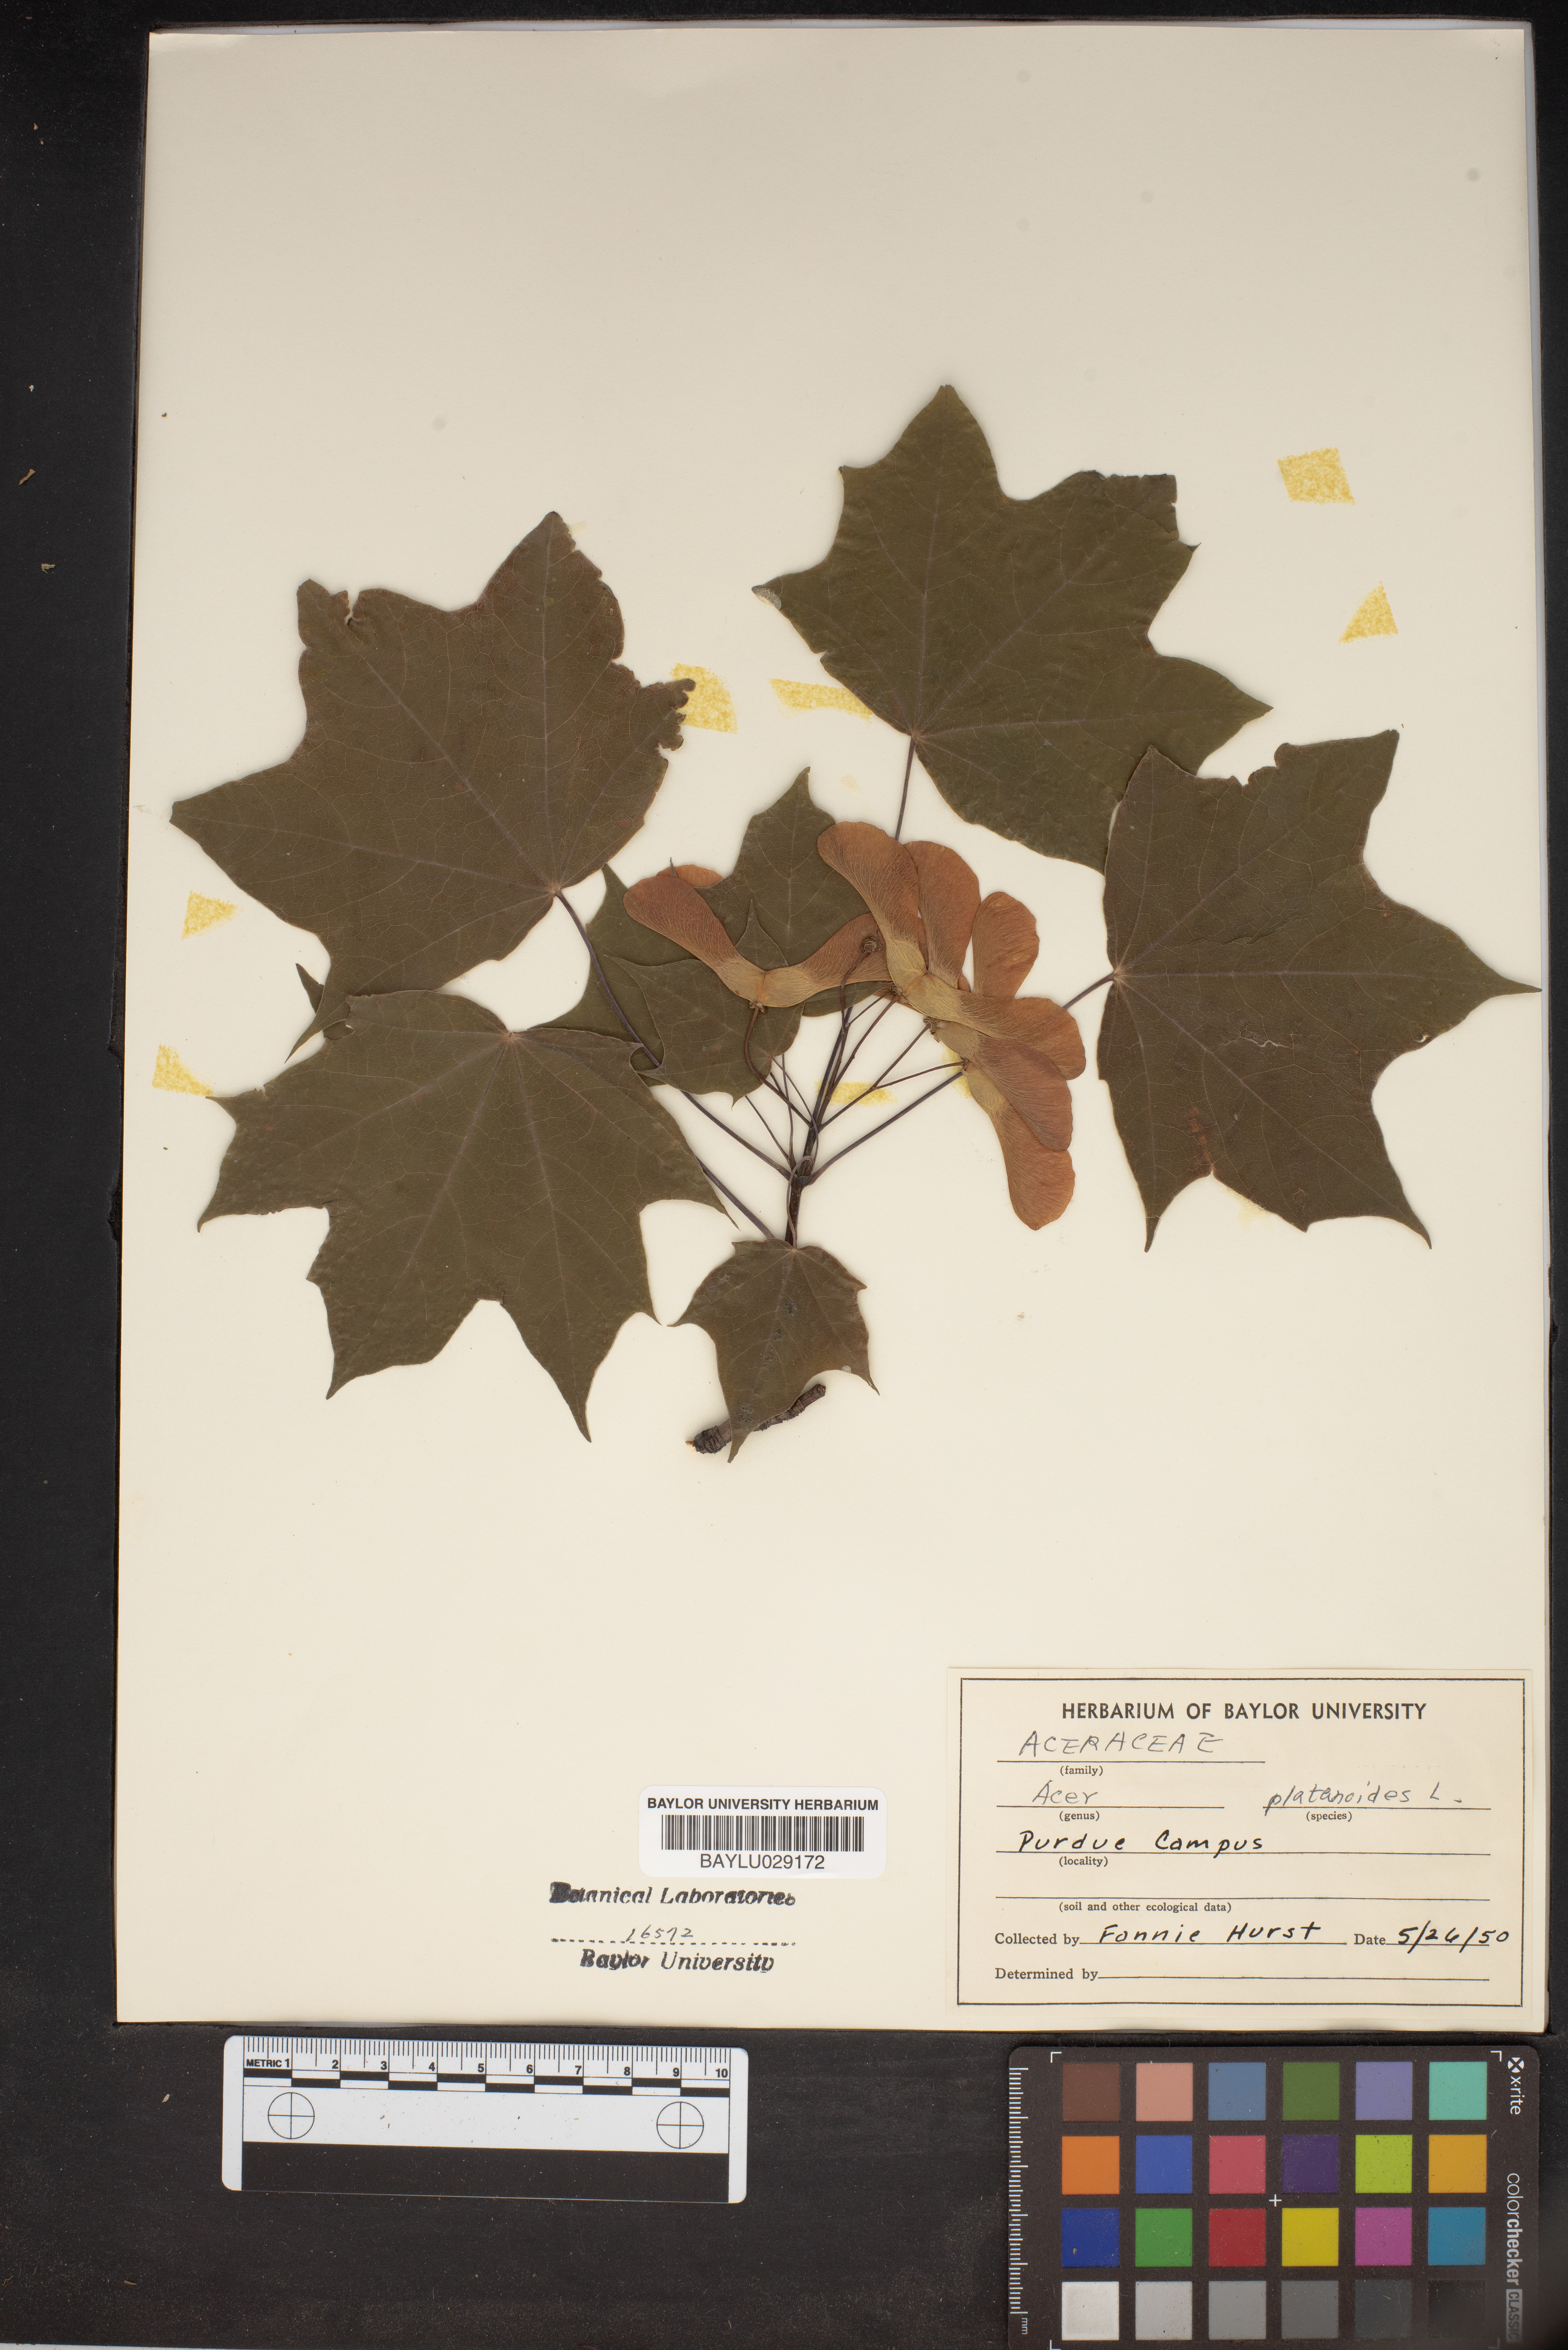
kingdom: Plantae
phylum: Tracheophyta
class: Magnoliopsida
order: Sapindales
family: Sapindaceae
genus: Acer
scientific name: Acer platanoides
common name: Norway maple
